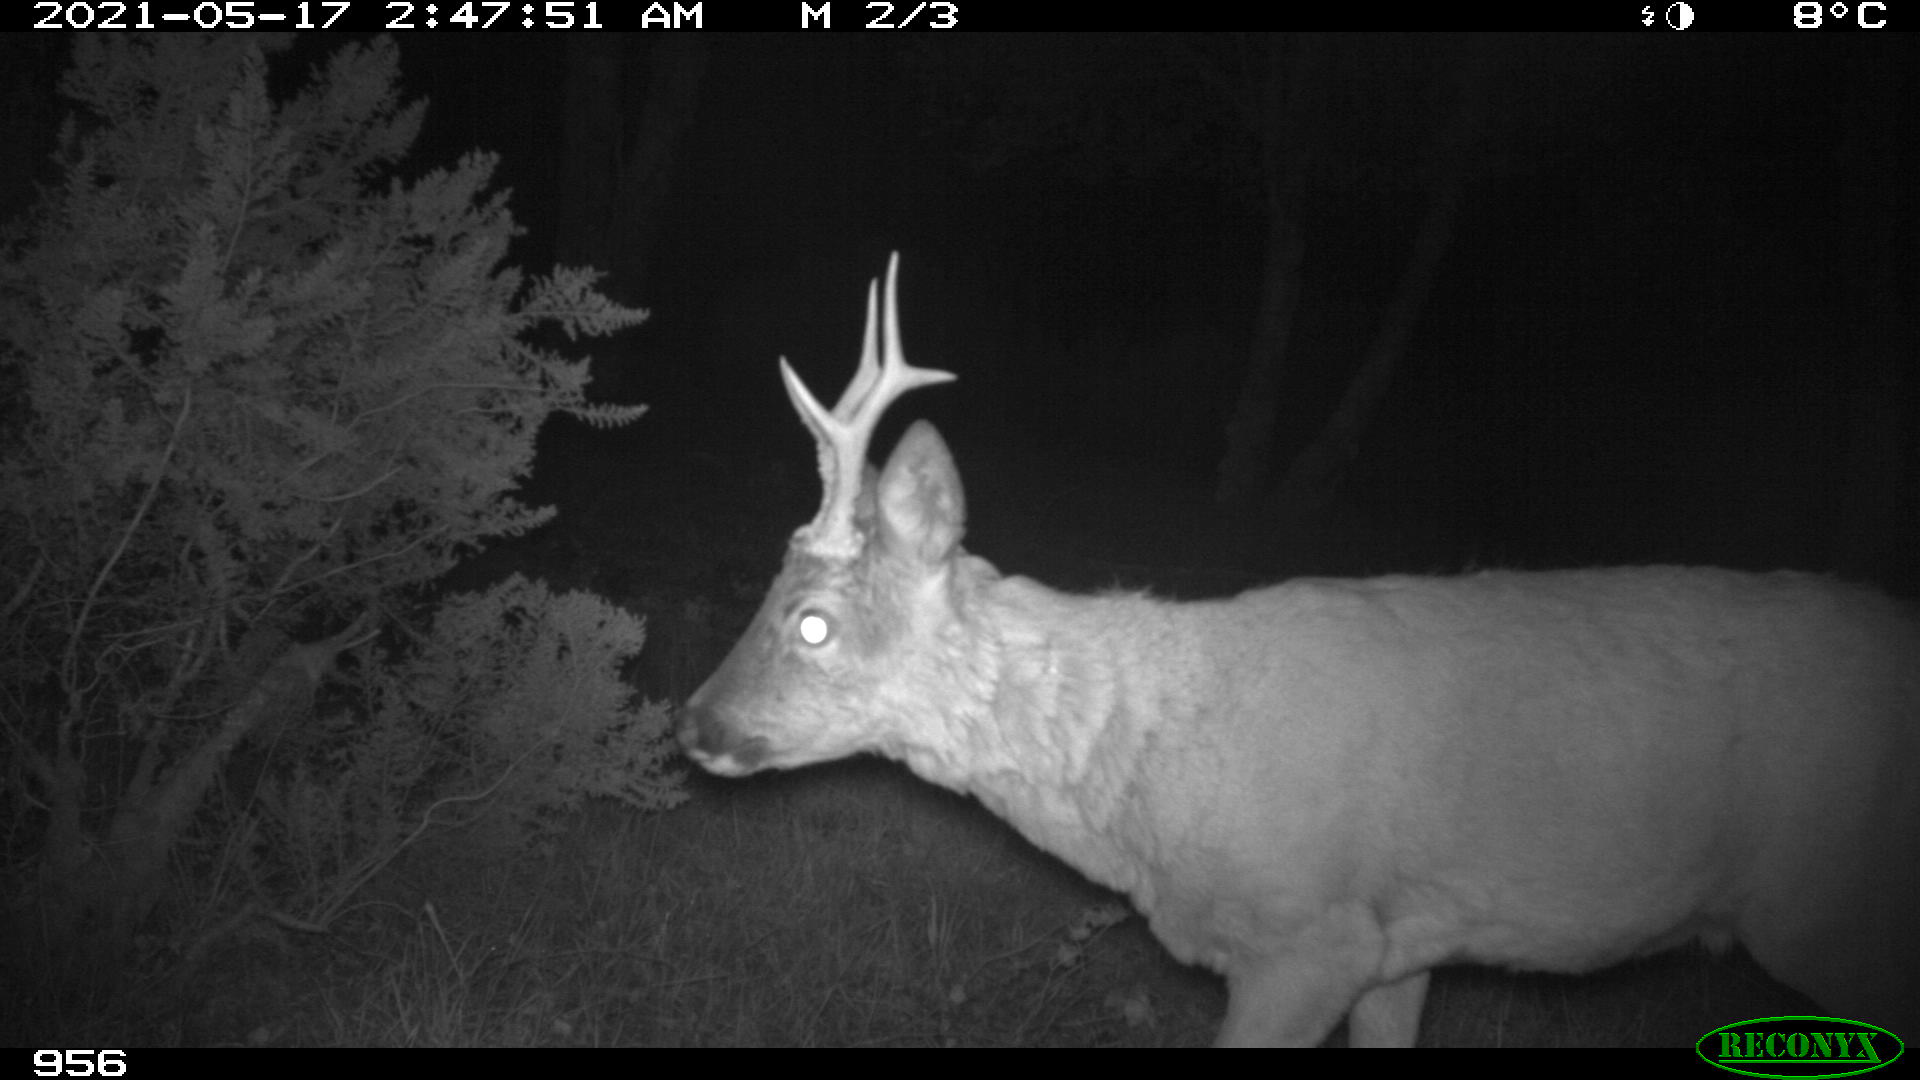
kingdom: Animalia
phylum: Chordata
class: Mammalia
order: Artiodactyla
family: Cervidae
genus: Capreolus
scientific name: Capreolus capreolus
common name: Western roe deer
